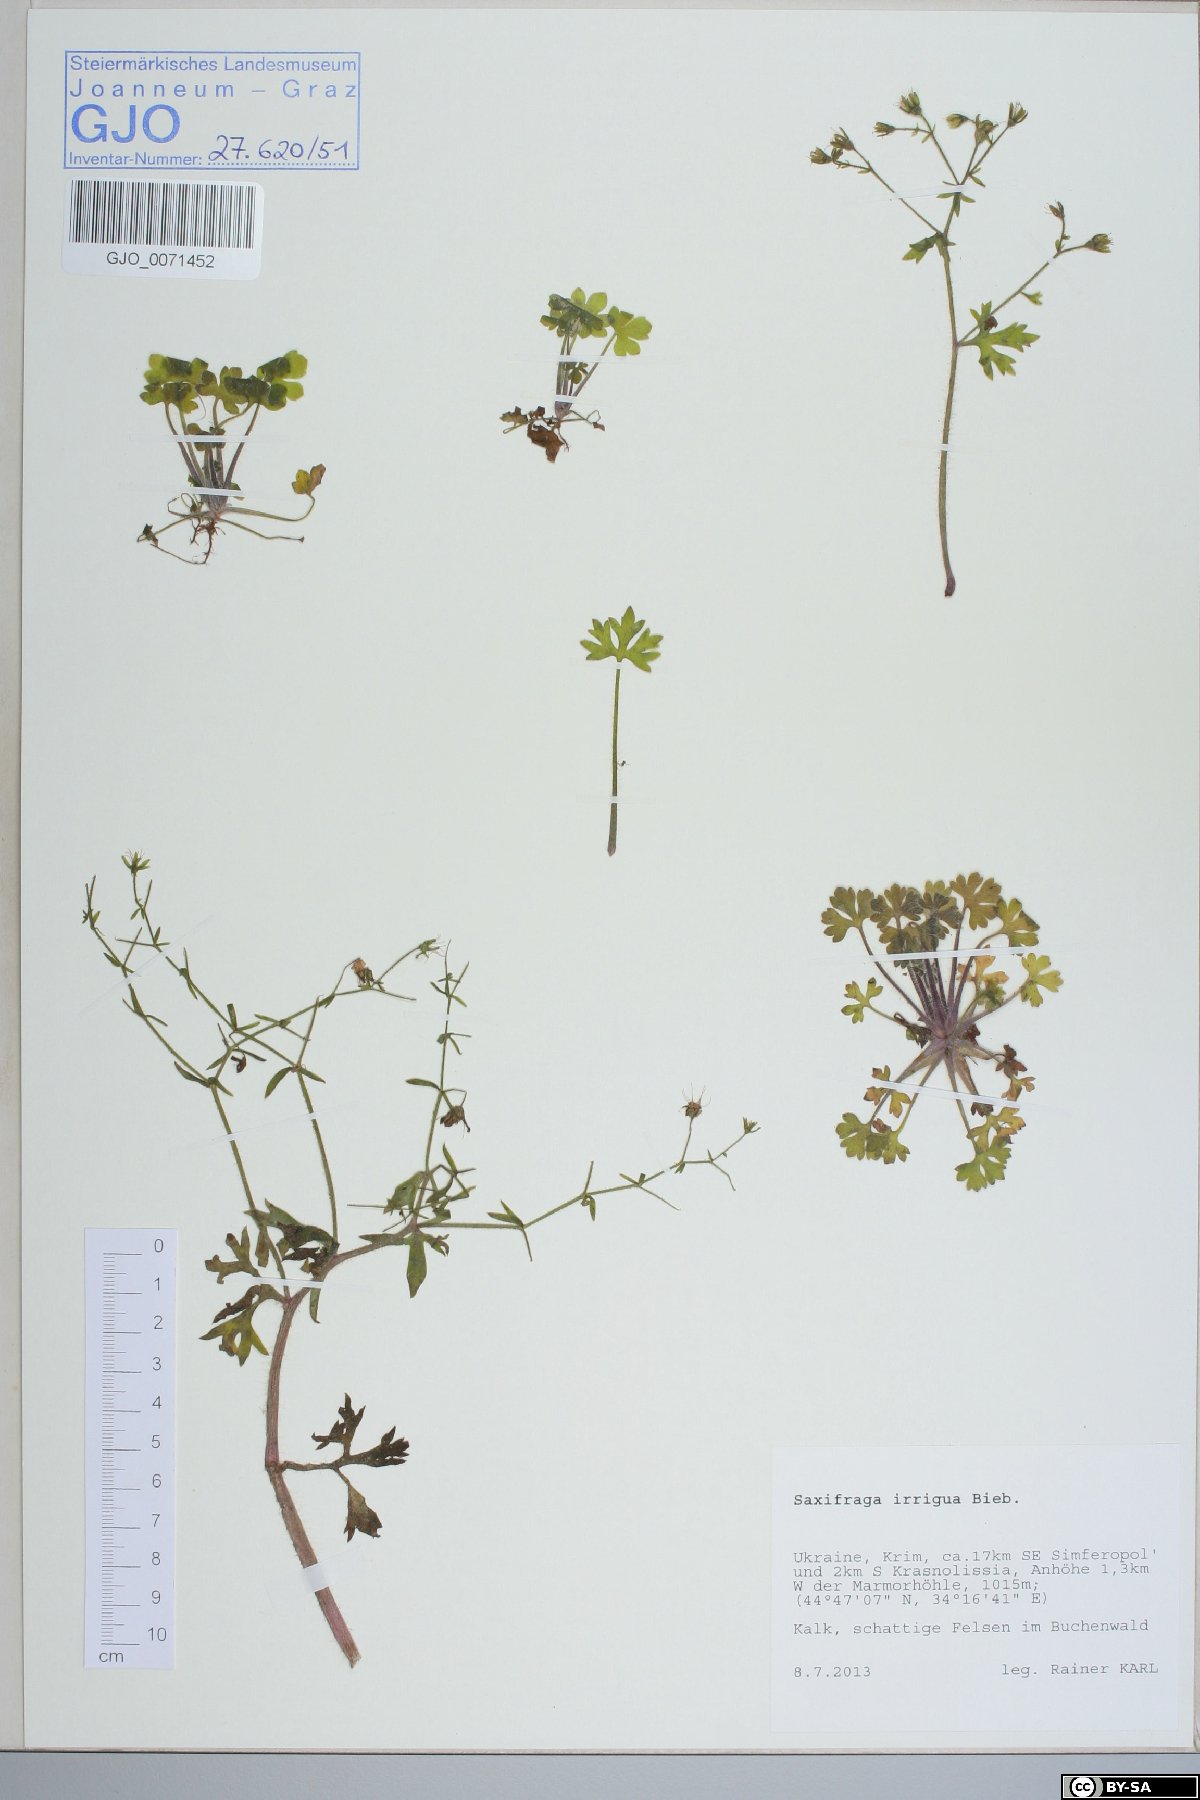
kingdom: Plantae
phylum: Tracheophyta
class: Magnoliopsida
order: Saxifragales
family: Saxifragaceae
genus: Saxifraga
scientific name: Saxifraga irrigua
